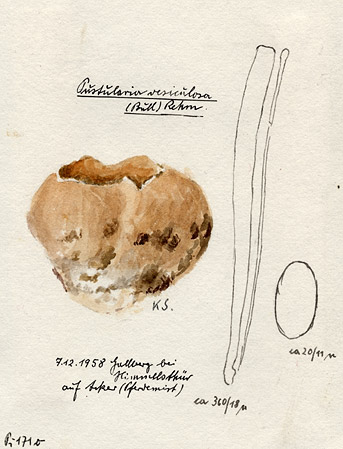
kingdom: Fungi
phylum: Ascomycota
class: Pezizomycetes
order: Pezizales
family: Pezizaceae
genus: Peziza
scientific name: Peziza vesiculosa
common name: Blistered cup
